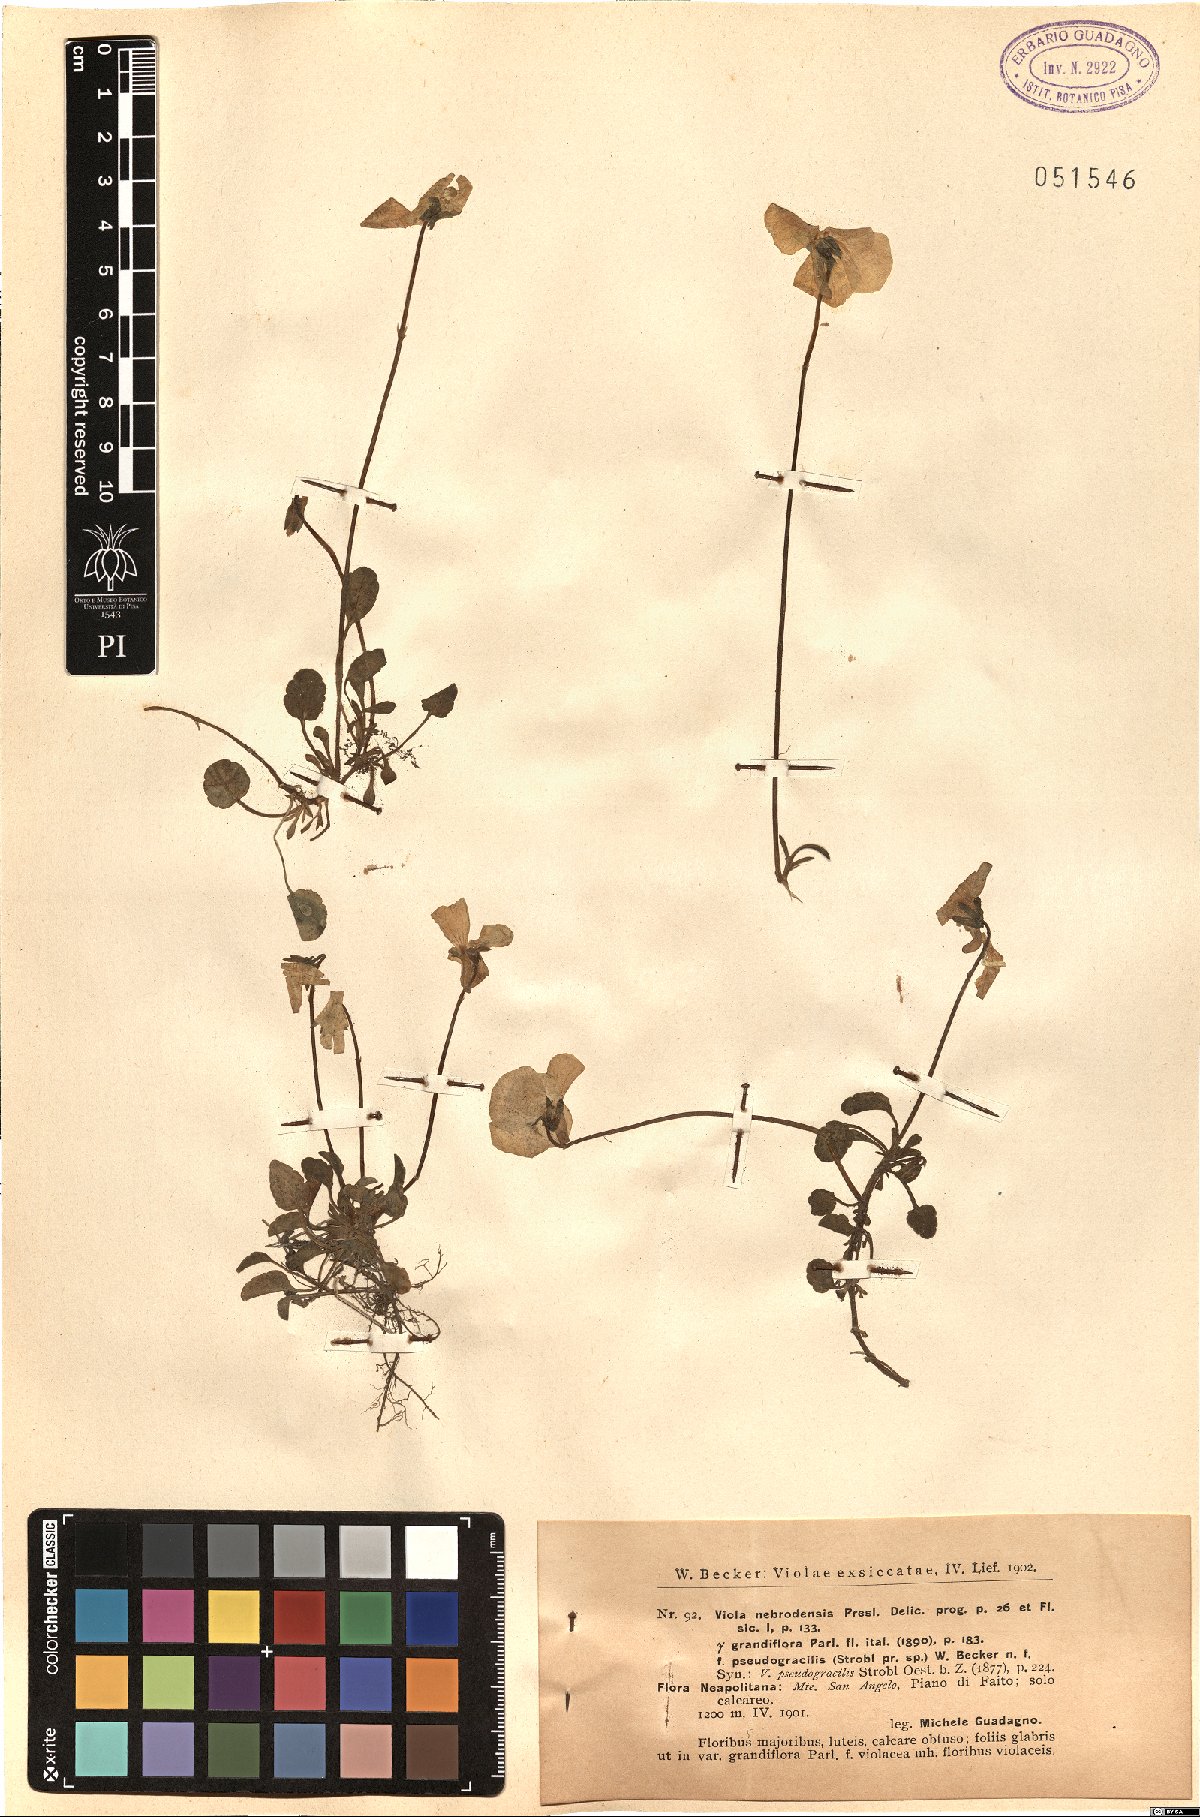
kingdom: Plantae
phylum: Tracheophyta
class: Magnoliopsida
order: Malpighiales
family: Violaceae
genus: Viola
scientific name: Viola nebrodensis
